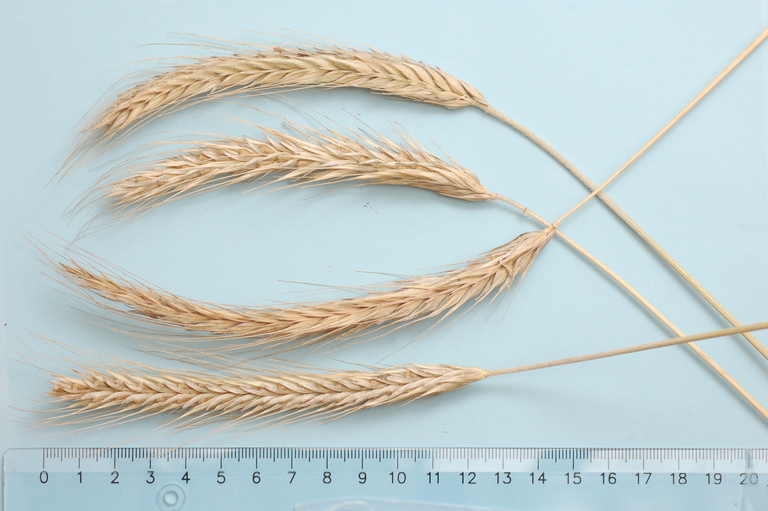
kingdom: Plantae
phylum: Tracheophyta
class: Liliopsida
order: Poales
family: Poaceae
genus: Secale
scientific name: Secale cereale
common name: Rye
